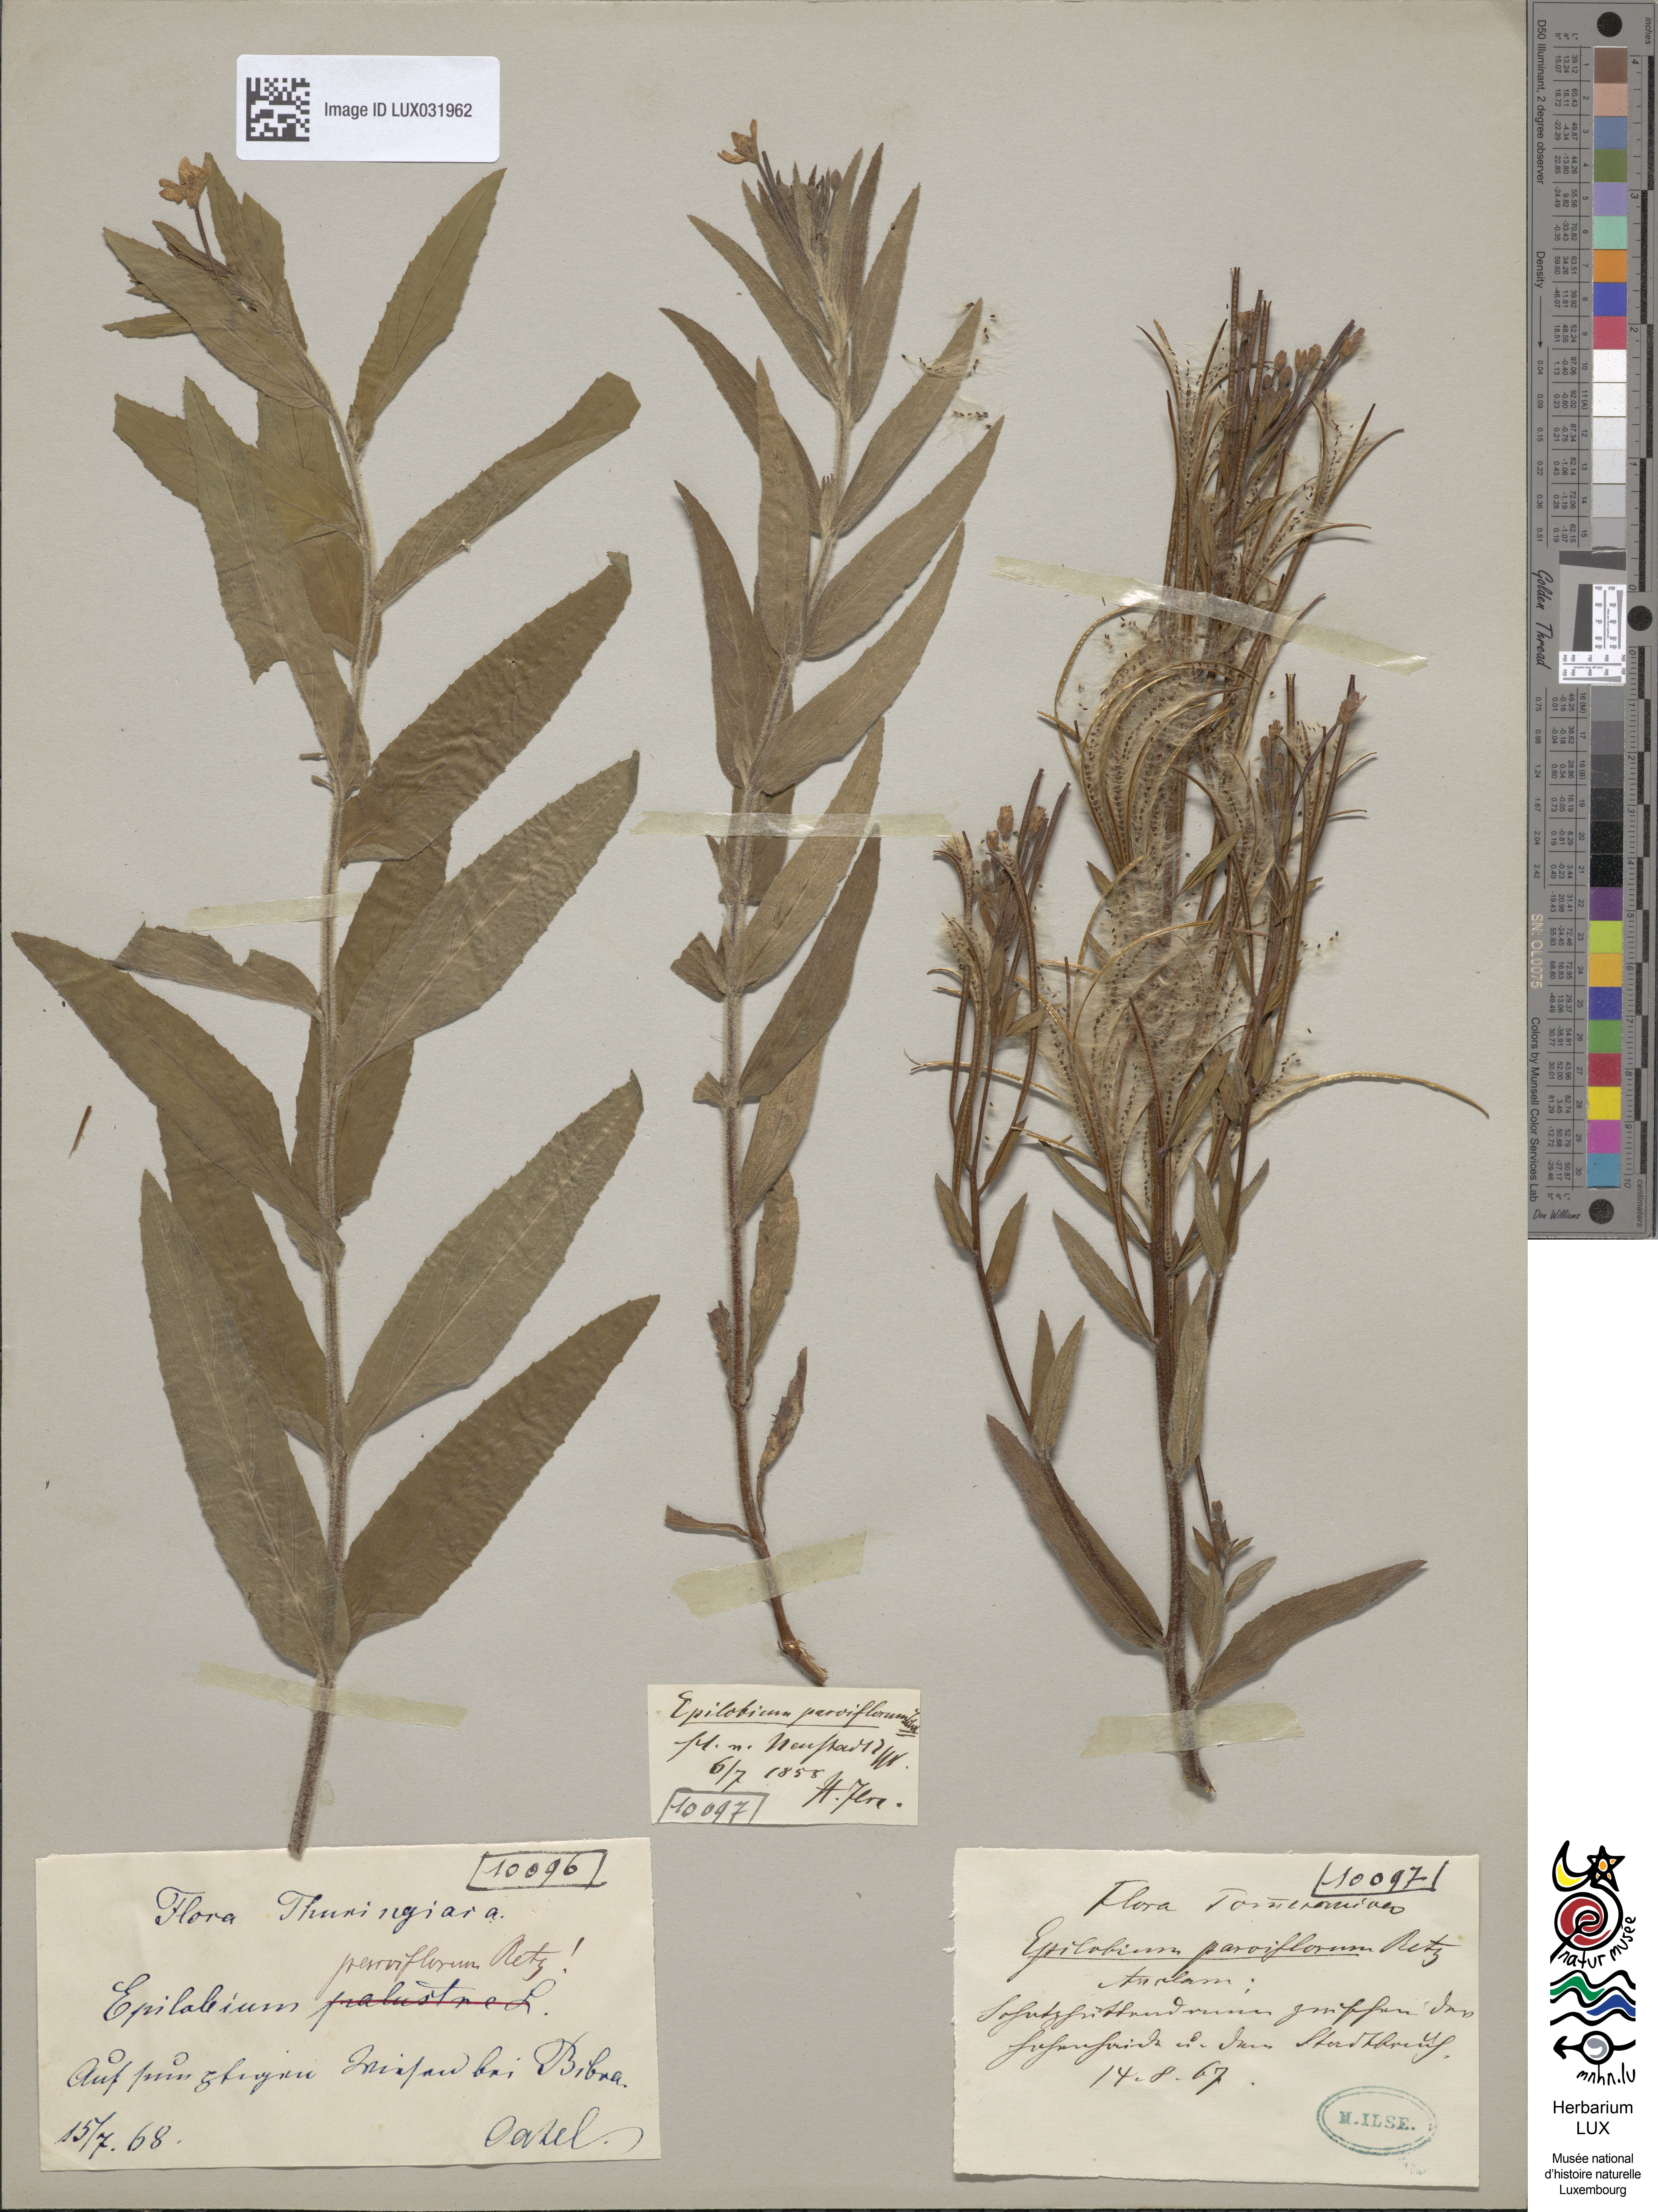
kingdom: Plantae
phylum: Tracheophyta
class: Magnoliopsida
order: Myrtales
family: Onagraceae
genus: Epilobium
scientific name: Epilobium parviflorum
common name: Hoary willowherb
